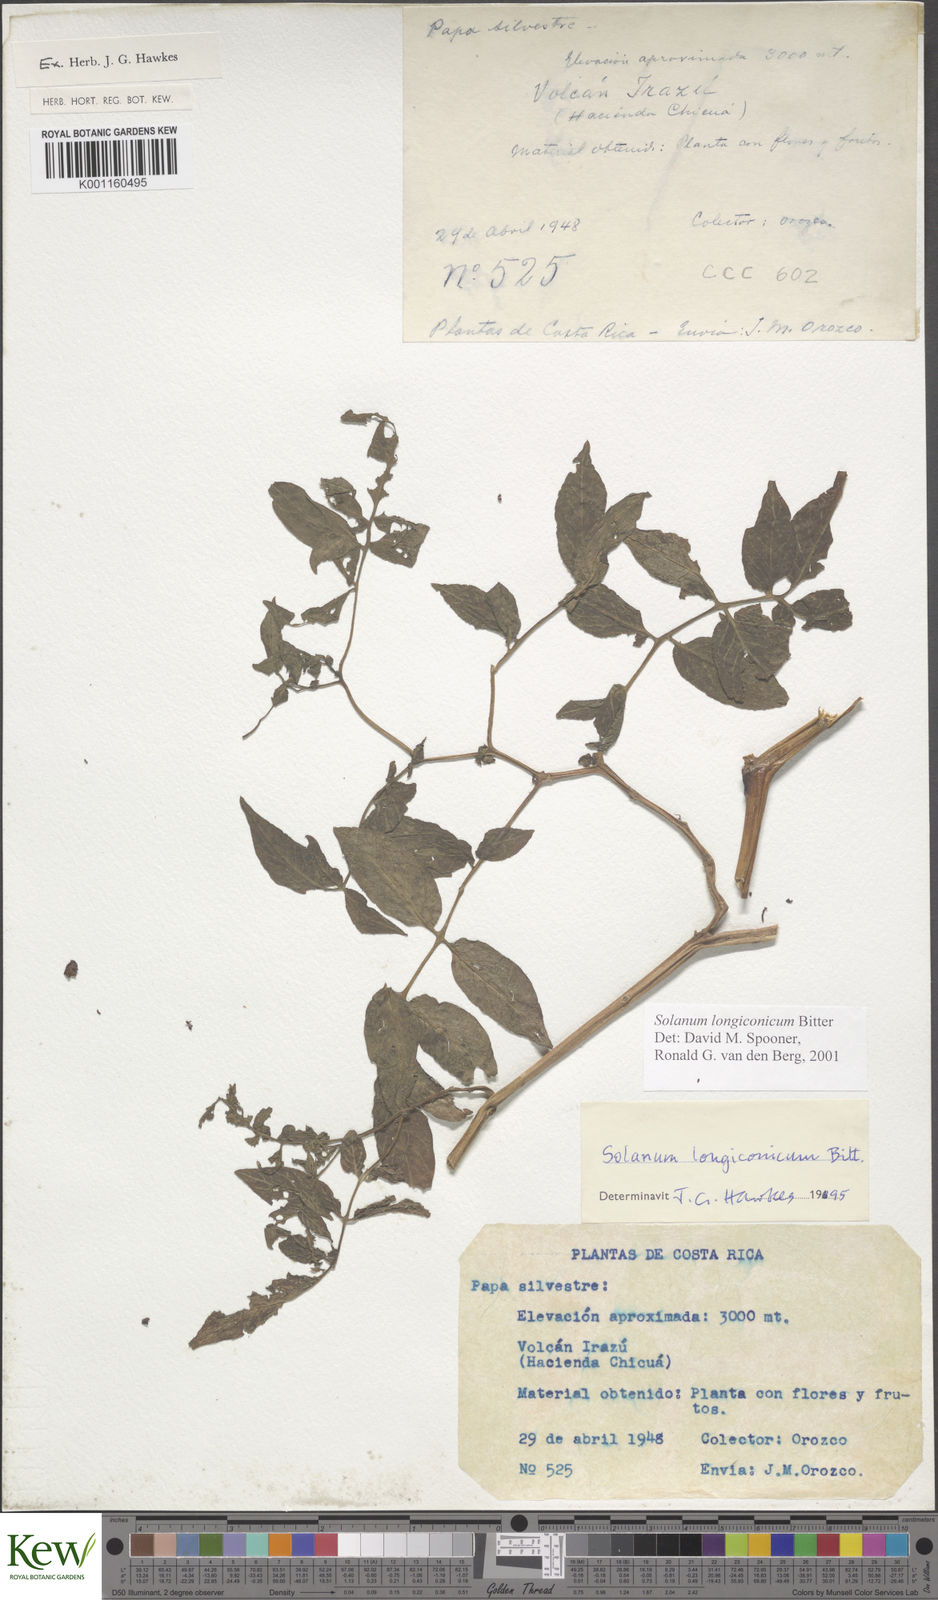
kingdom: Plantae
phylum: Tracheophyta
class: Magnoliopsida
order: Solanales
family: Solanaceae
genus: Solanum
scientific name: Solanum longiconicum
